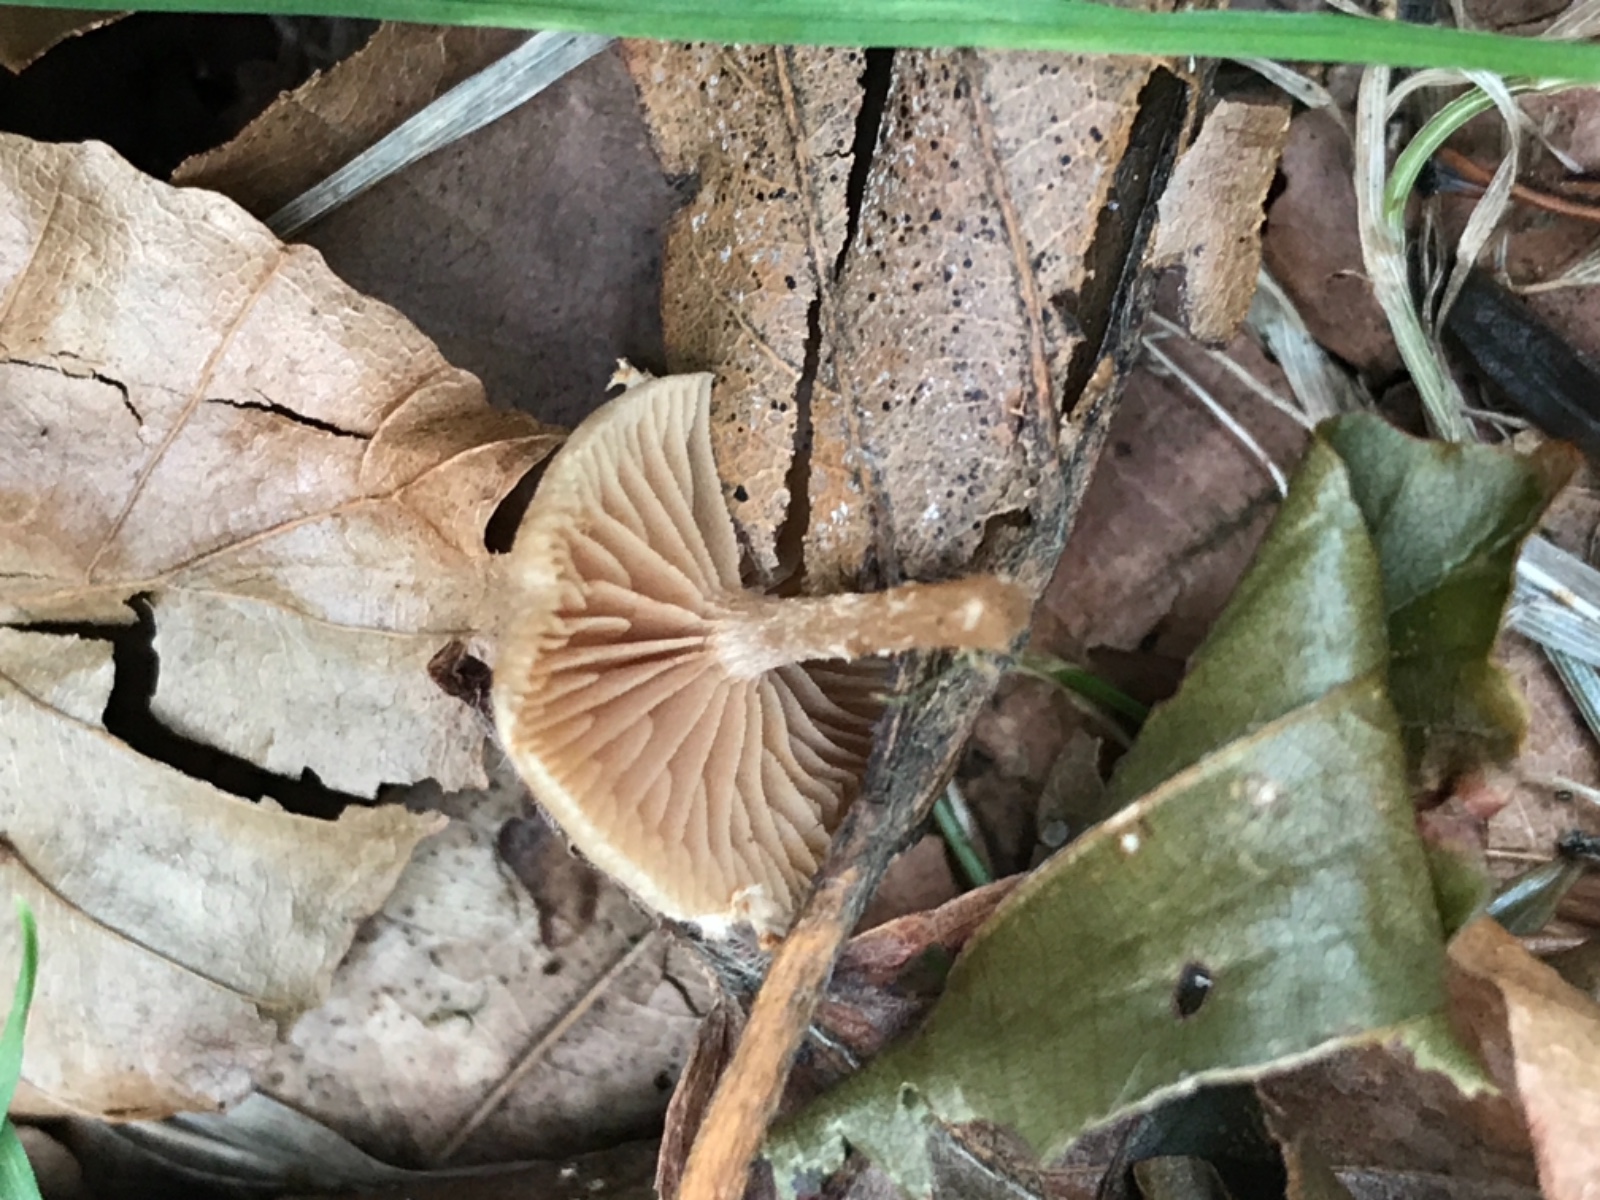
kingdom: Fungi
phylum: Basidiomycota
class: Agaricomycetes
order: Agaricales
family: Tubariaceae
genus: Tubaria
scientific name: Tubaria conspersa
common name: bleg fnughat
